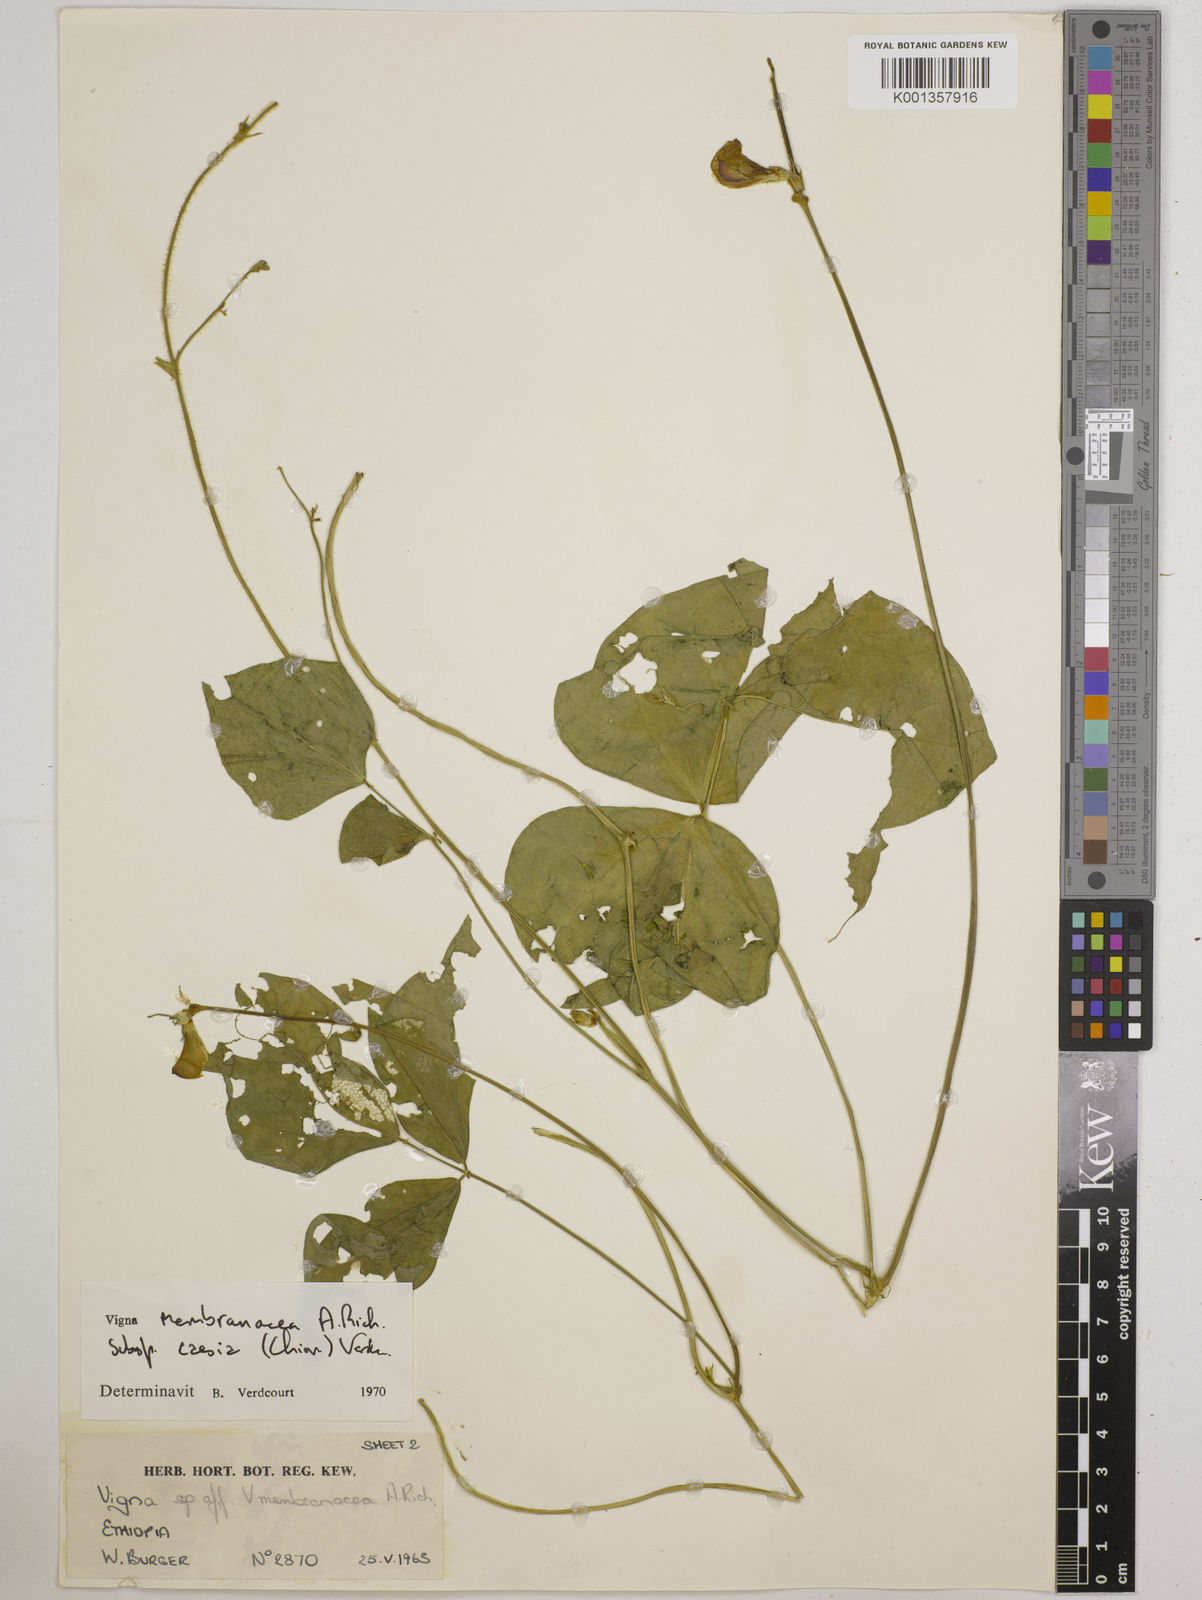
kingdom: Plantae
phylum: Tracheophyta
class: Magnoliopsida
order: Fabales
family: Fabaceae
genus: Vigna
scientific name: Vigna
